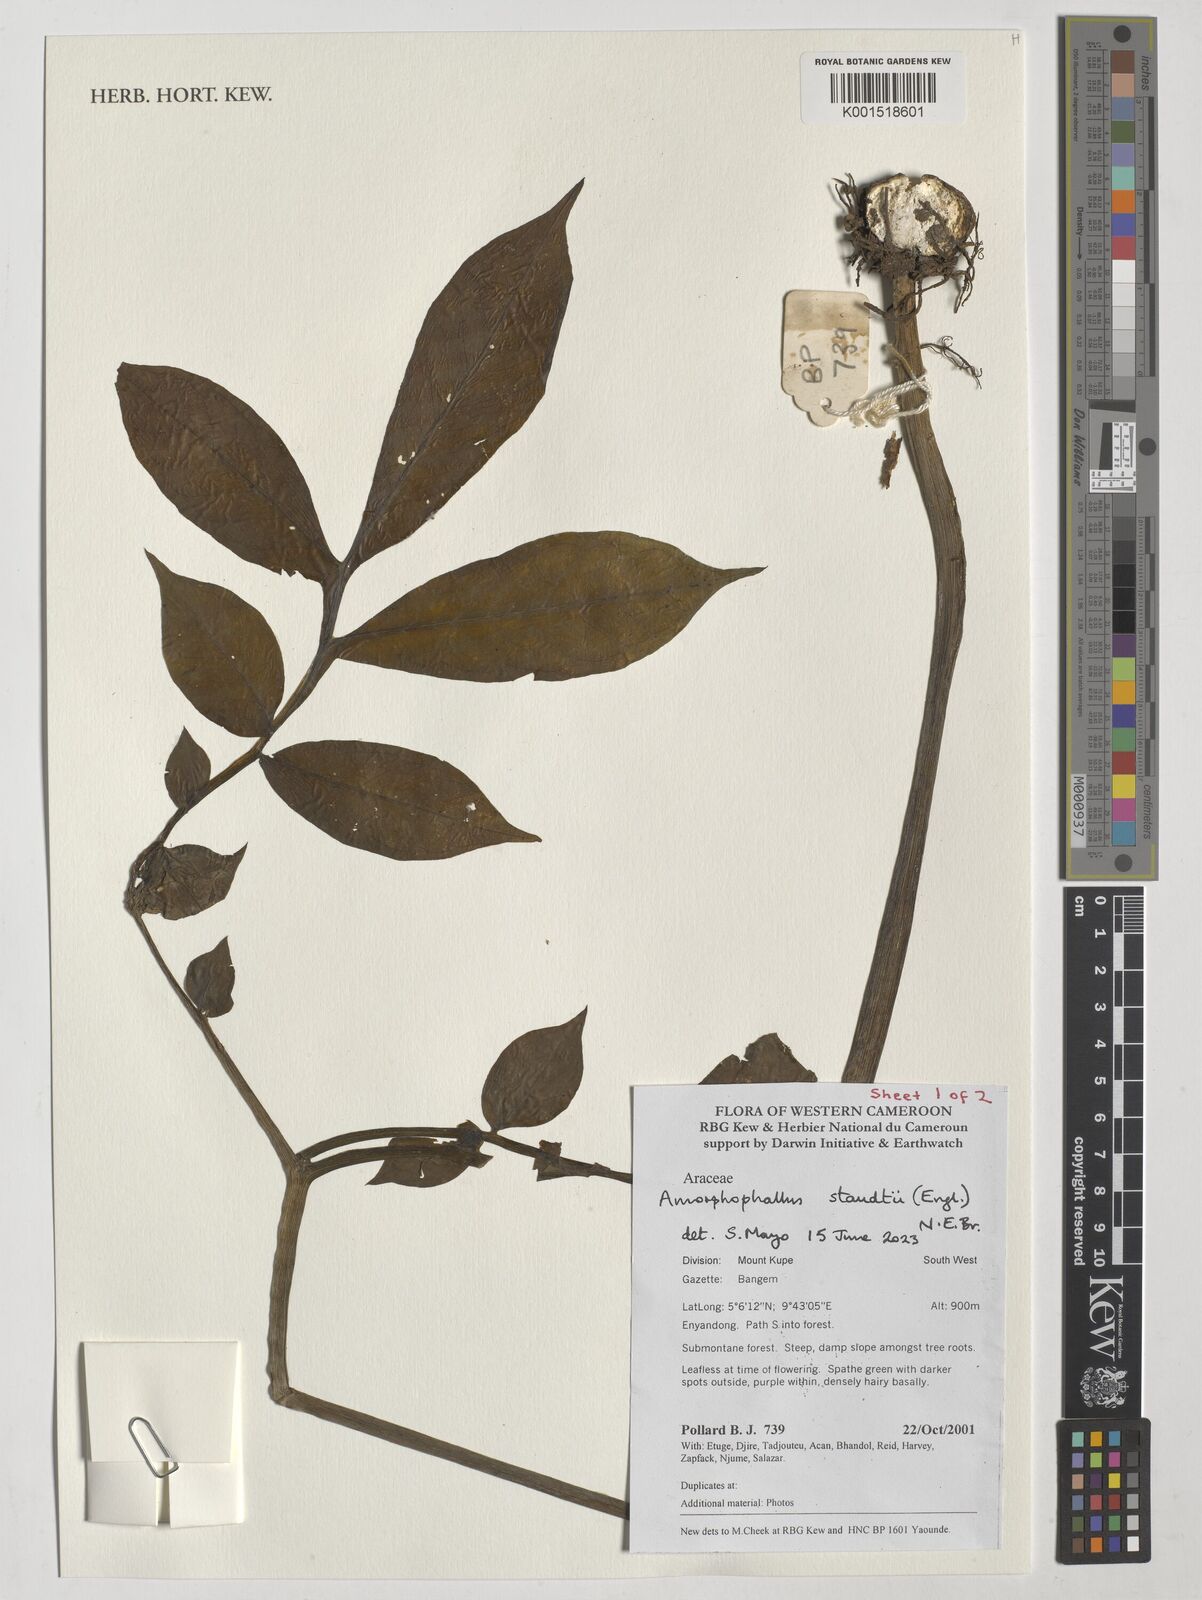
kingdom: Plantae
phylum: Tracheophyta
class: Liliopsida
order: Alismatales
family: Araceae
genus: Amorphophallus
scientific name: Amorphophallus staudtii
